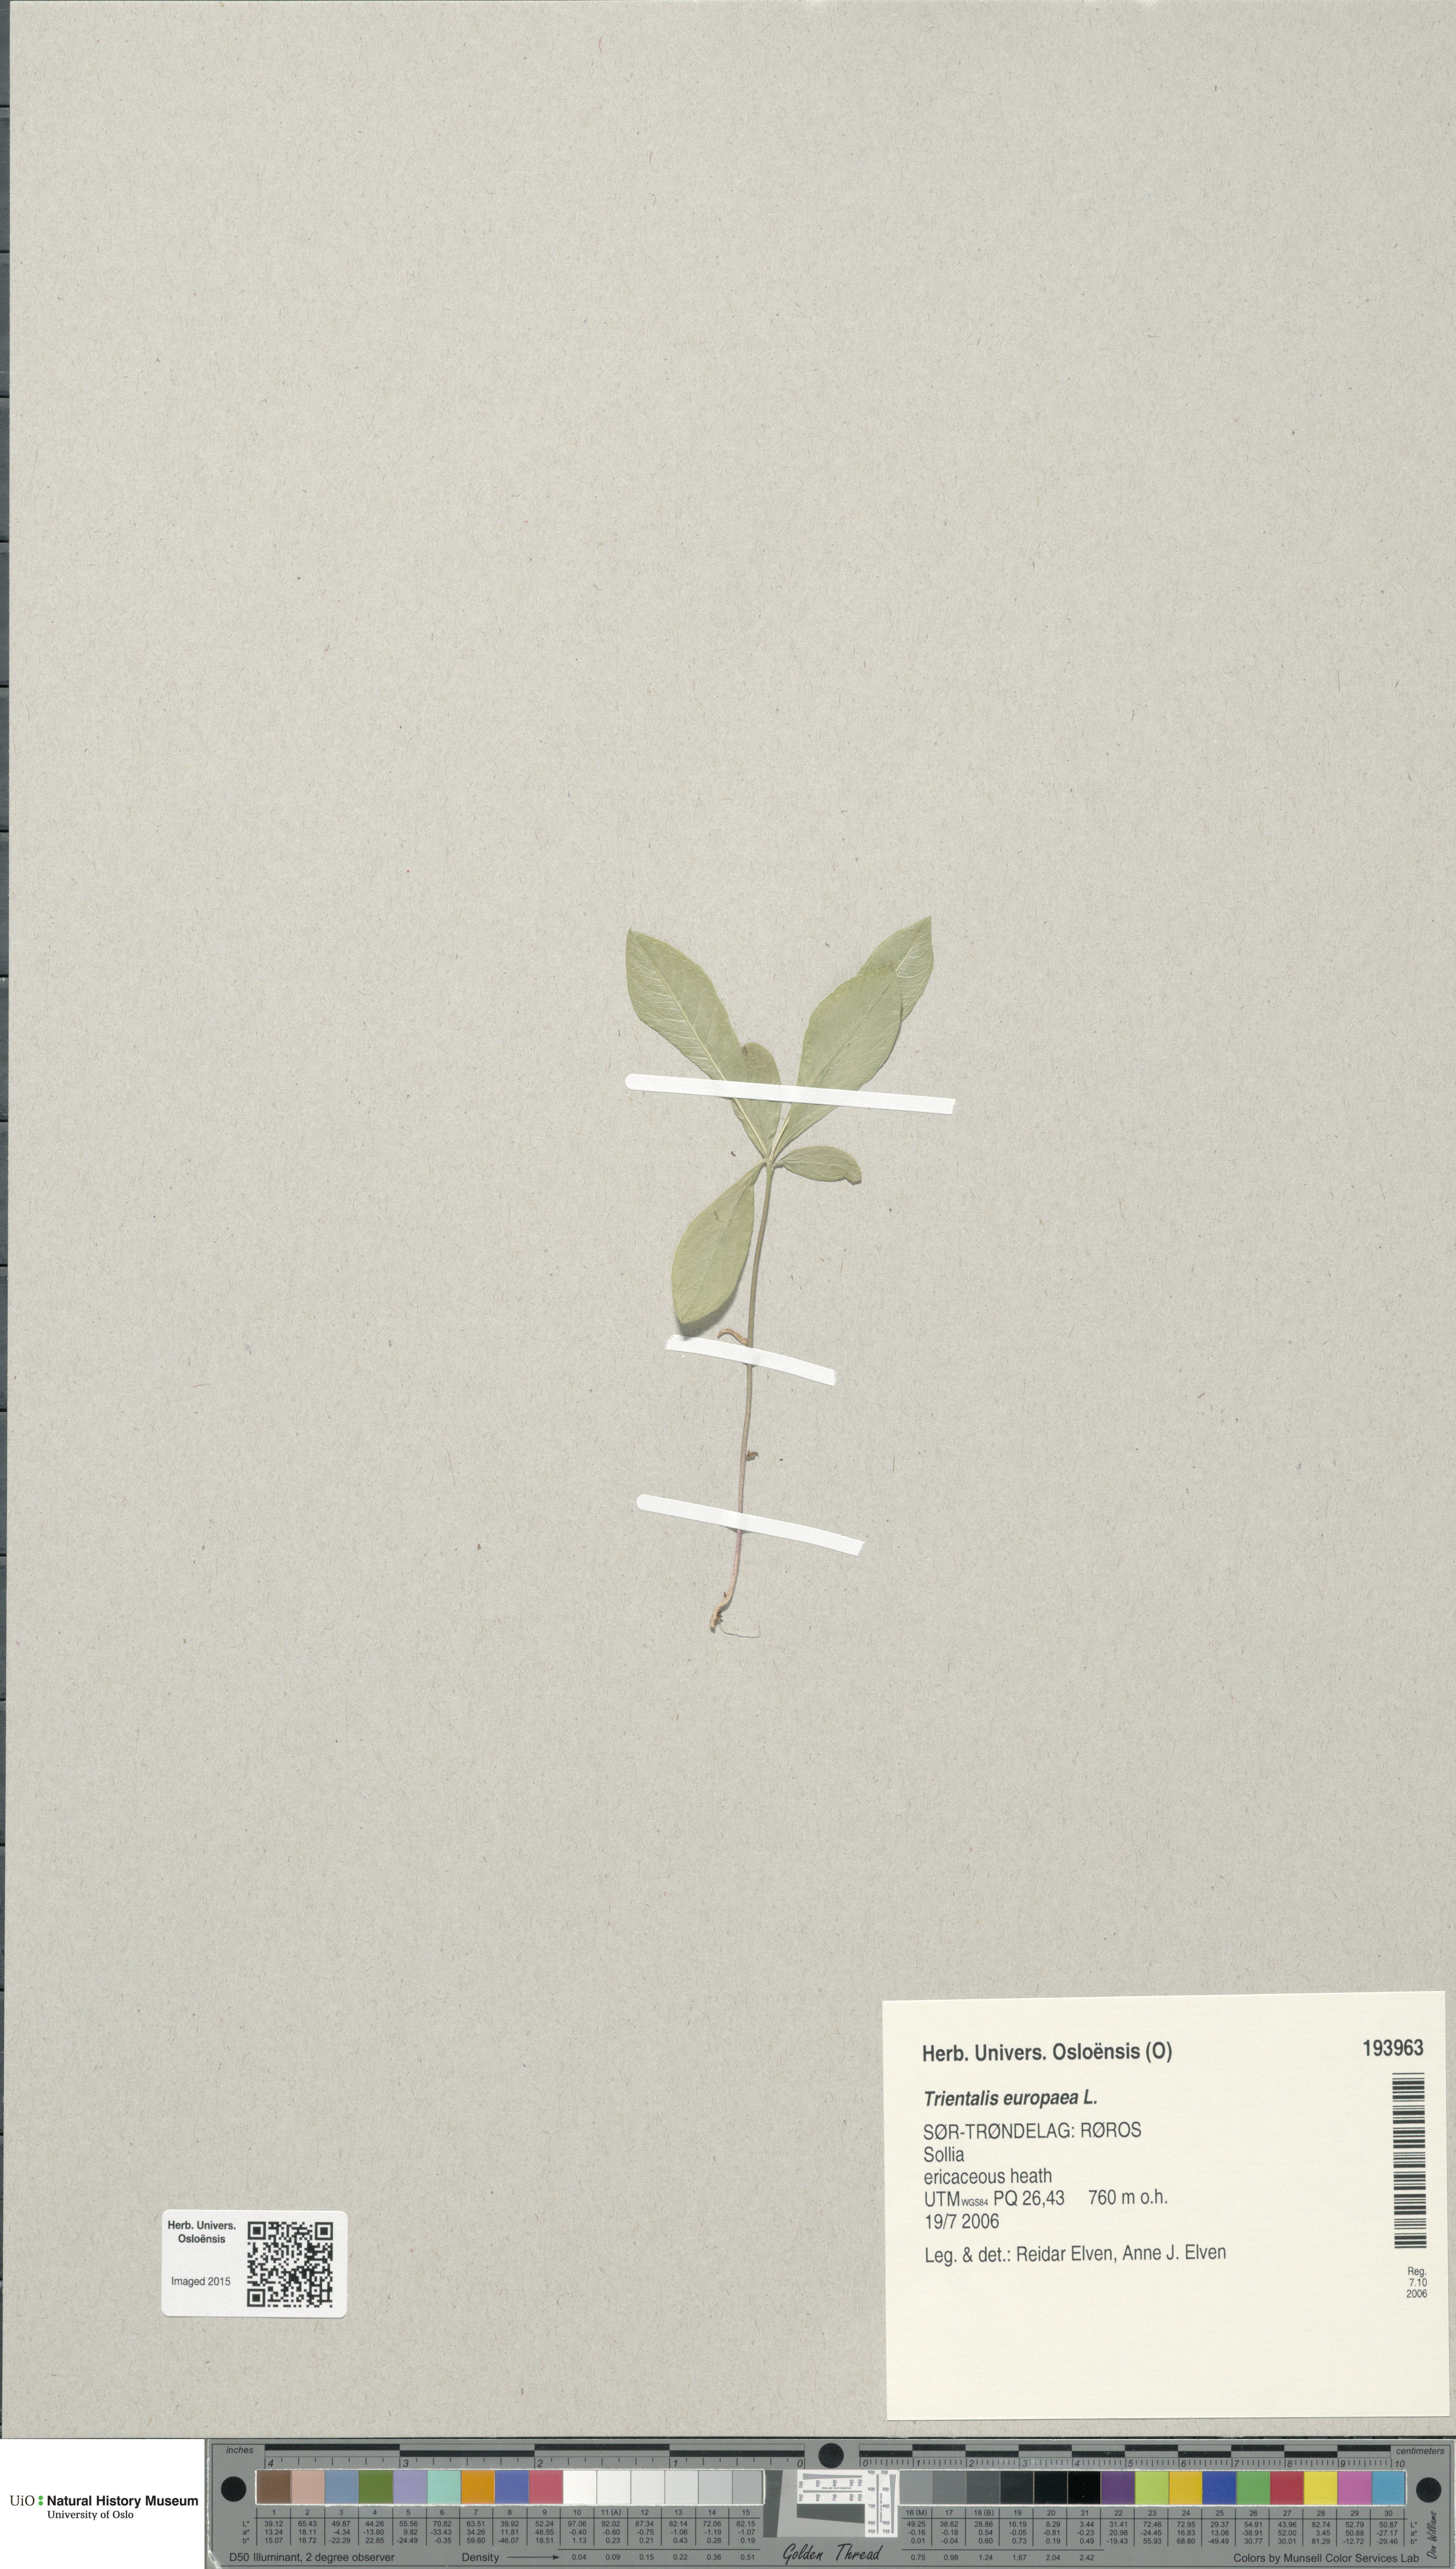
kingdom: Plantae
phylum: Tracheophyta
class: Magnoliopsida
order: Ericales
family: Primulaceae
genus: Lysimachia
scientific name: Lysimachia europaea
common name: Arctic starflower
